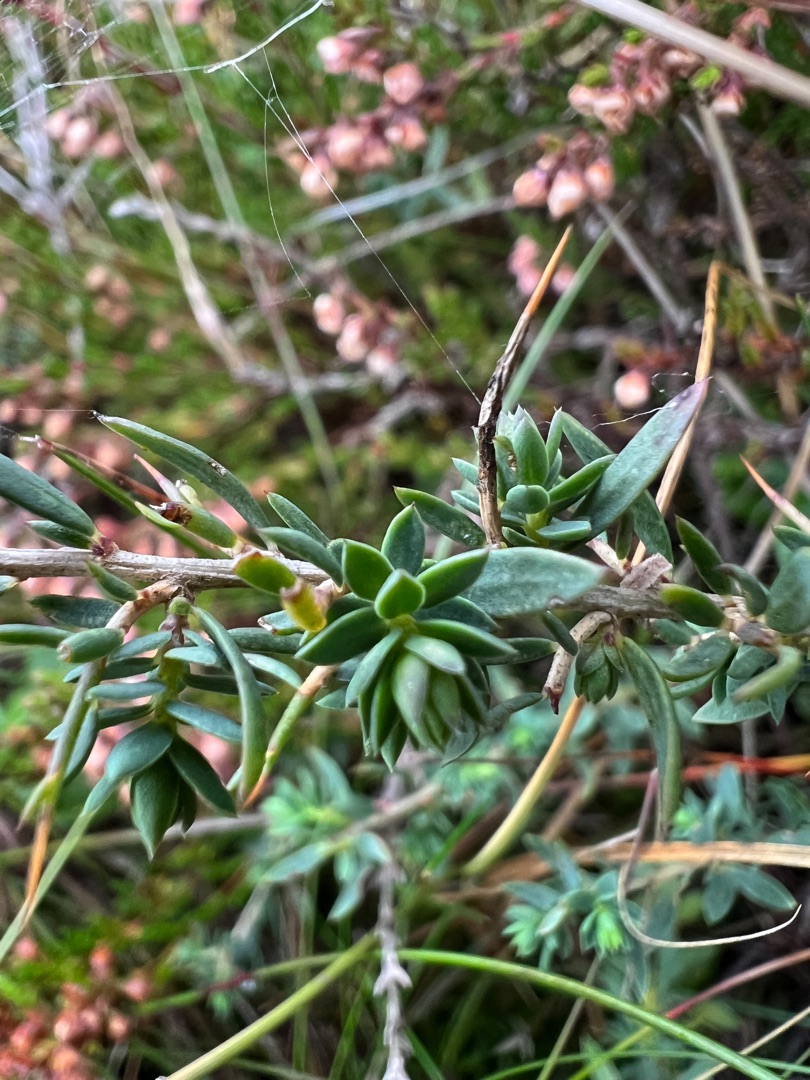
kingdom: Plantae
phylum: Tracheophyta
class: Magnoliopsida
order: Fabales
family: Fabaceae
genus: Genista
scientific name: Genista anglica
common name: Engelsk visse
